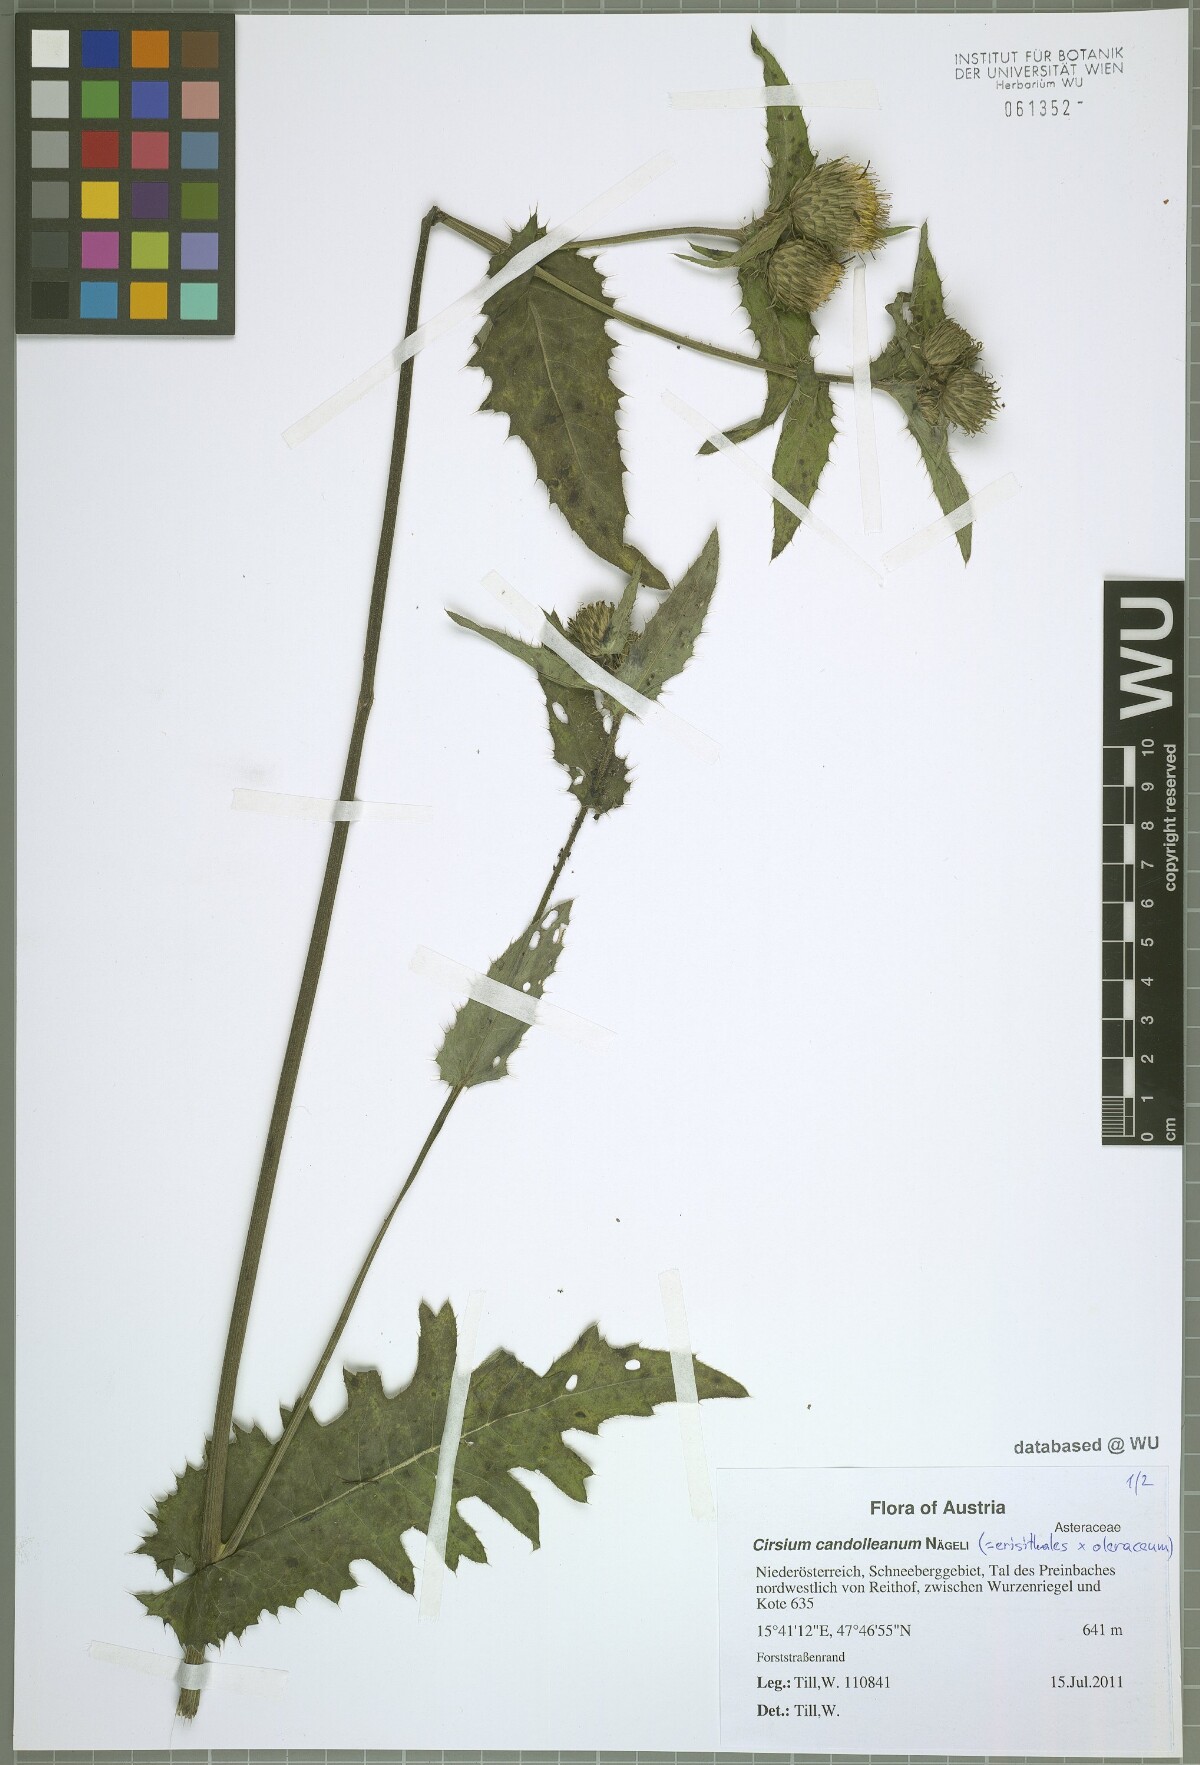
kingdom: Plantae
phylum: Tracheophyta
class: Magnoliopsida
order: Asterales
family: Asteraceae
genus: Cirsium
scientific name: Cirsium candolleanum
